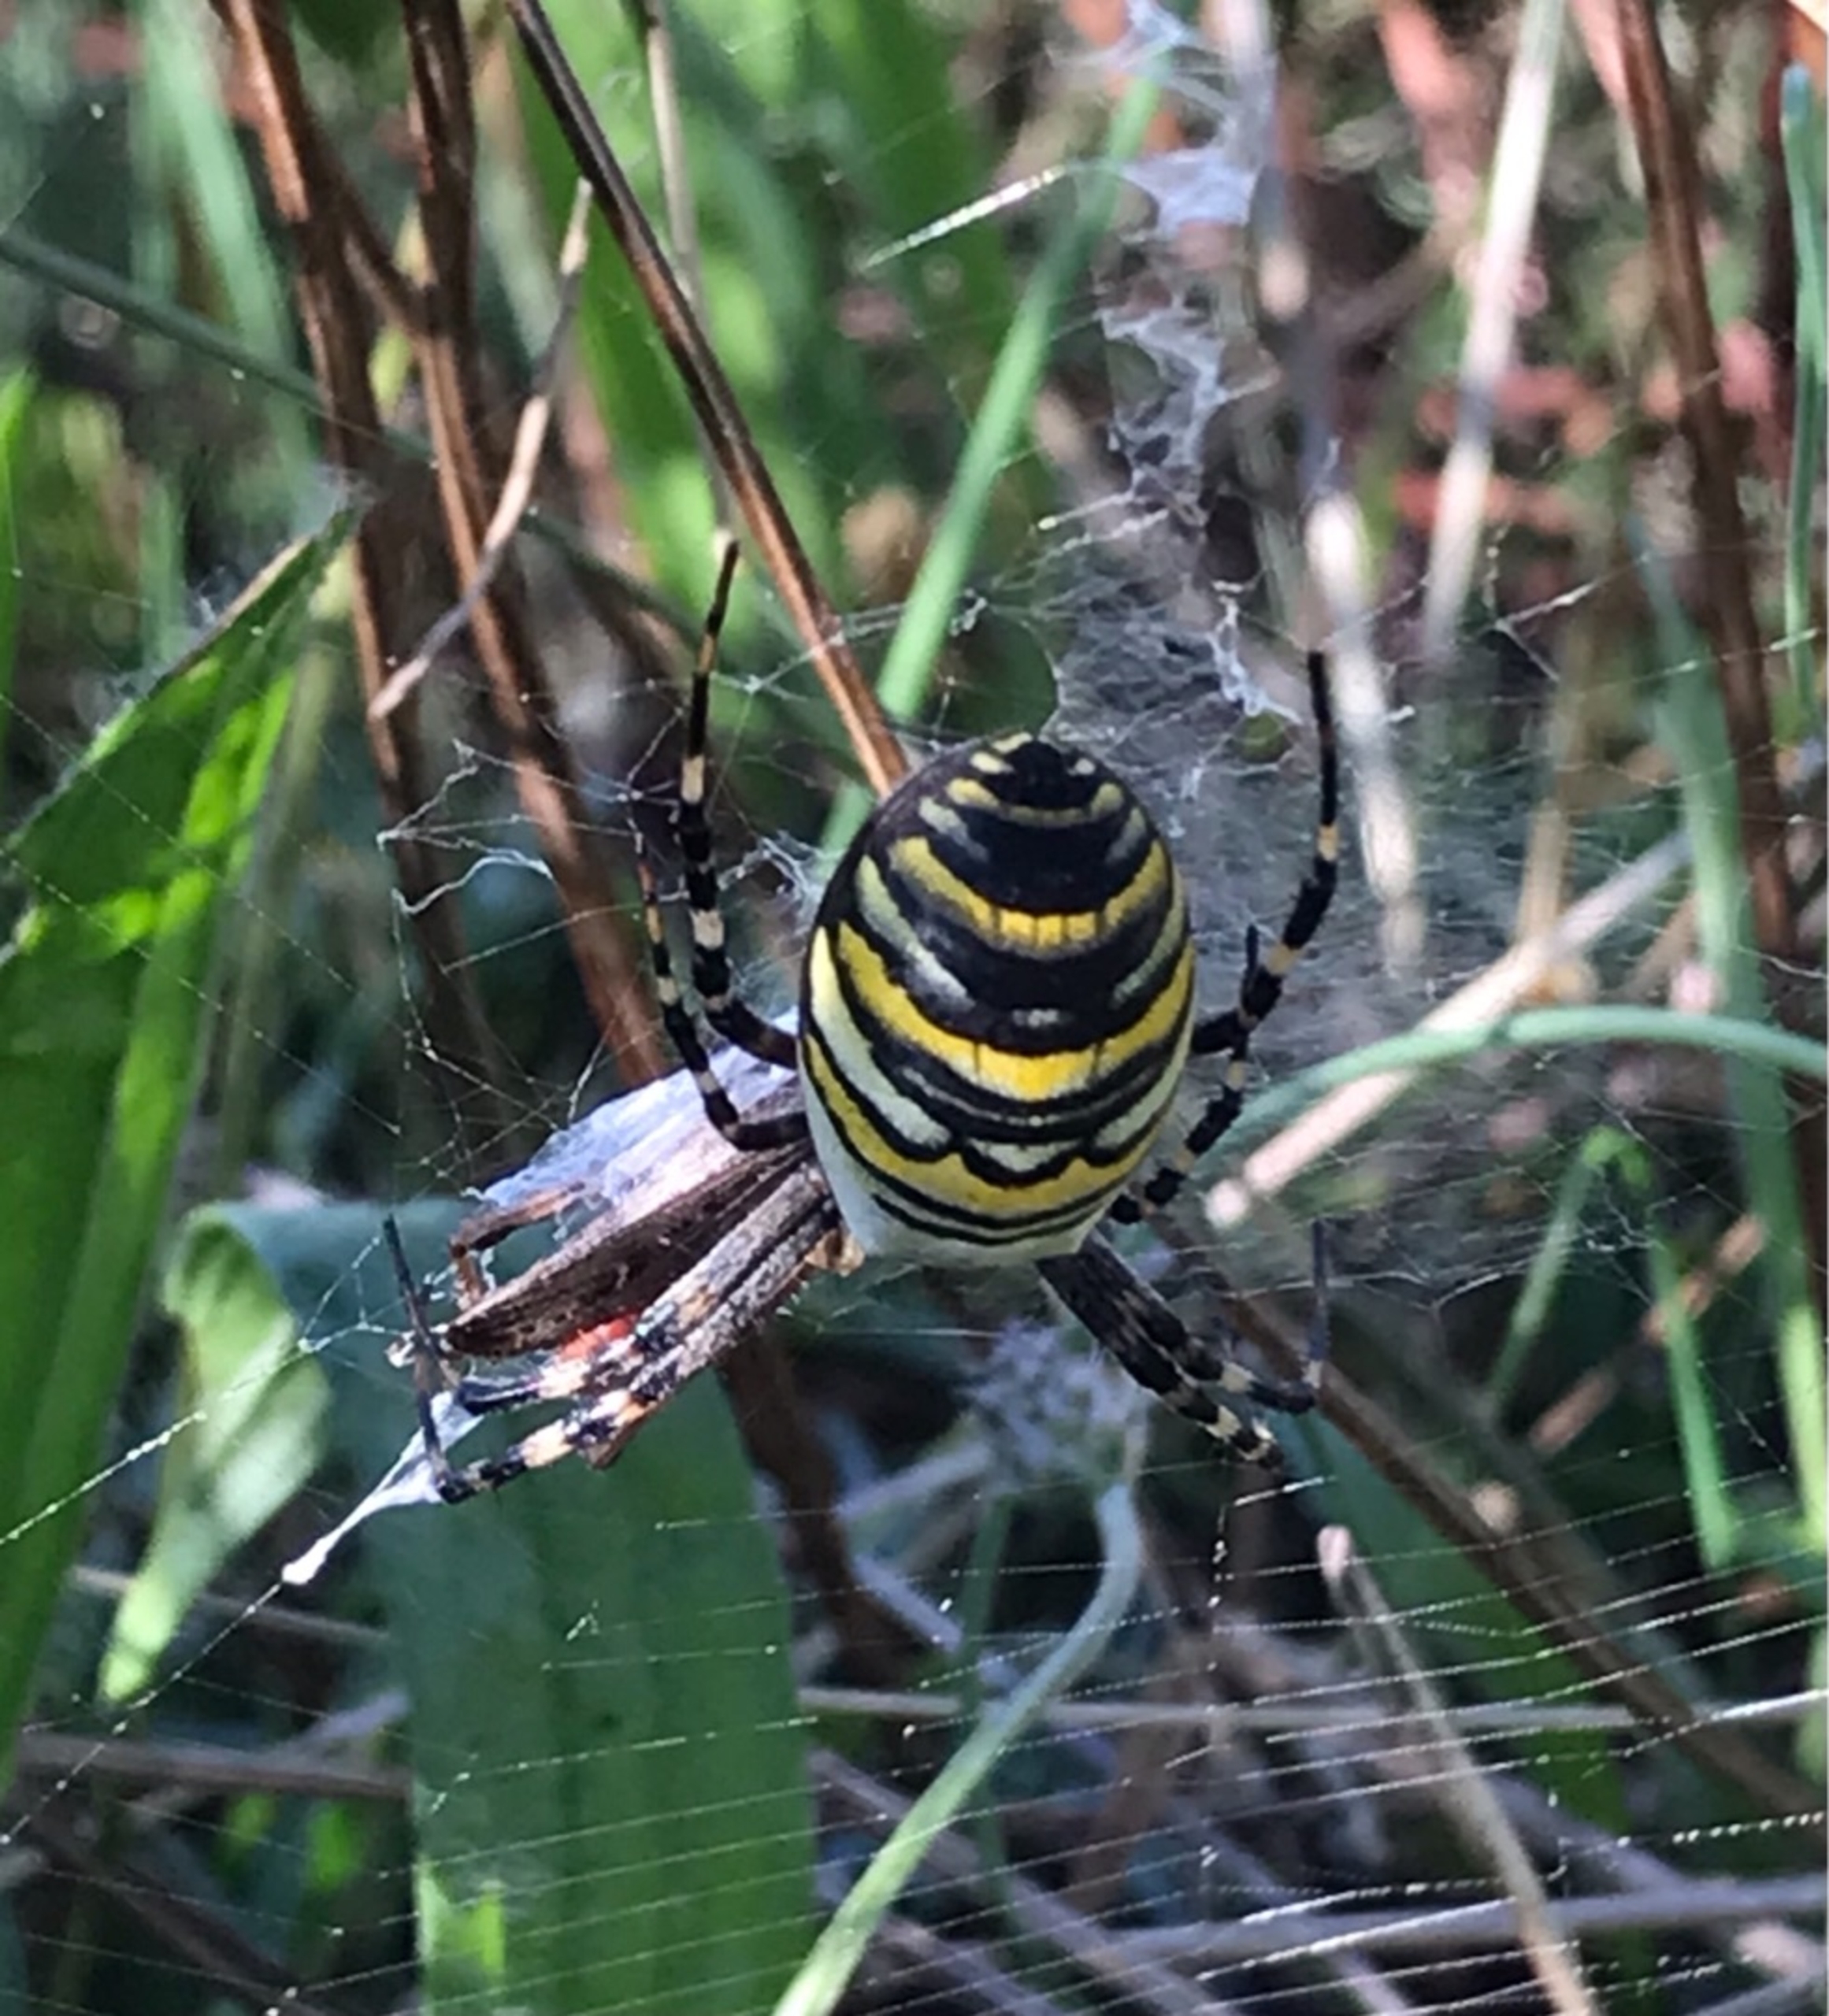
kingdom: Animalia
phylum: Arthropoda
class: Arachnida
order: Araneae
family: Araneidae
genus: Argiope
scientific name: Argiope bruennichi
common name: Hvepseedderkop
